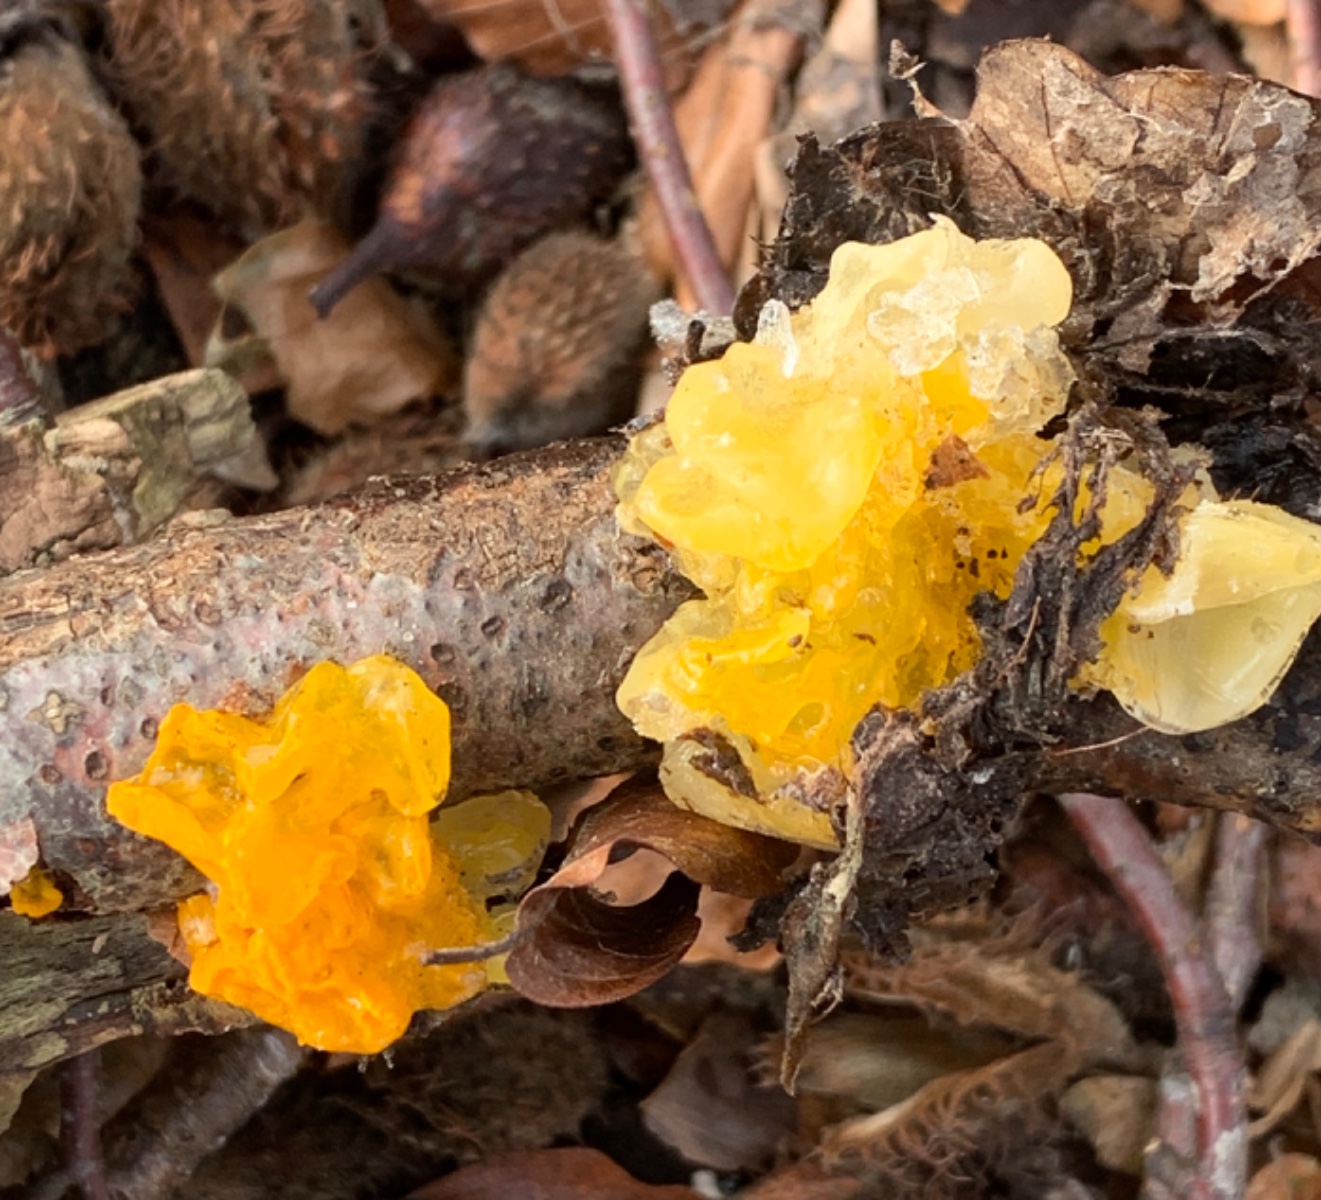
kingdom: Fungi
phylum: Basidiomycota
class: Tremellomycetes
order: Tremellales
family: Tremellaceae
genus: Tremella
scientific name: Tremella mesenterica
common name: gul bævresvamp
